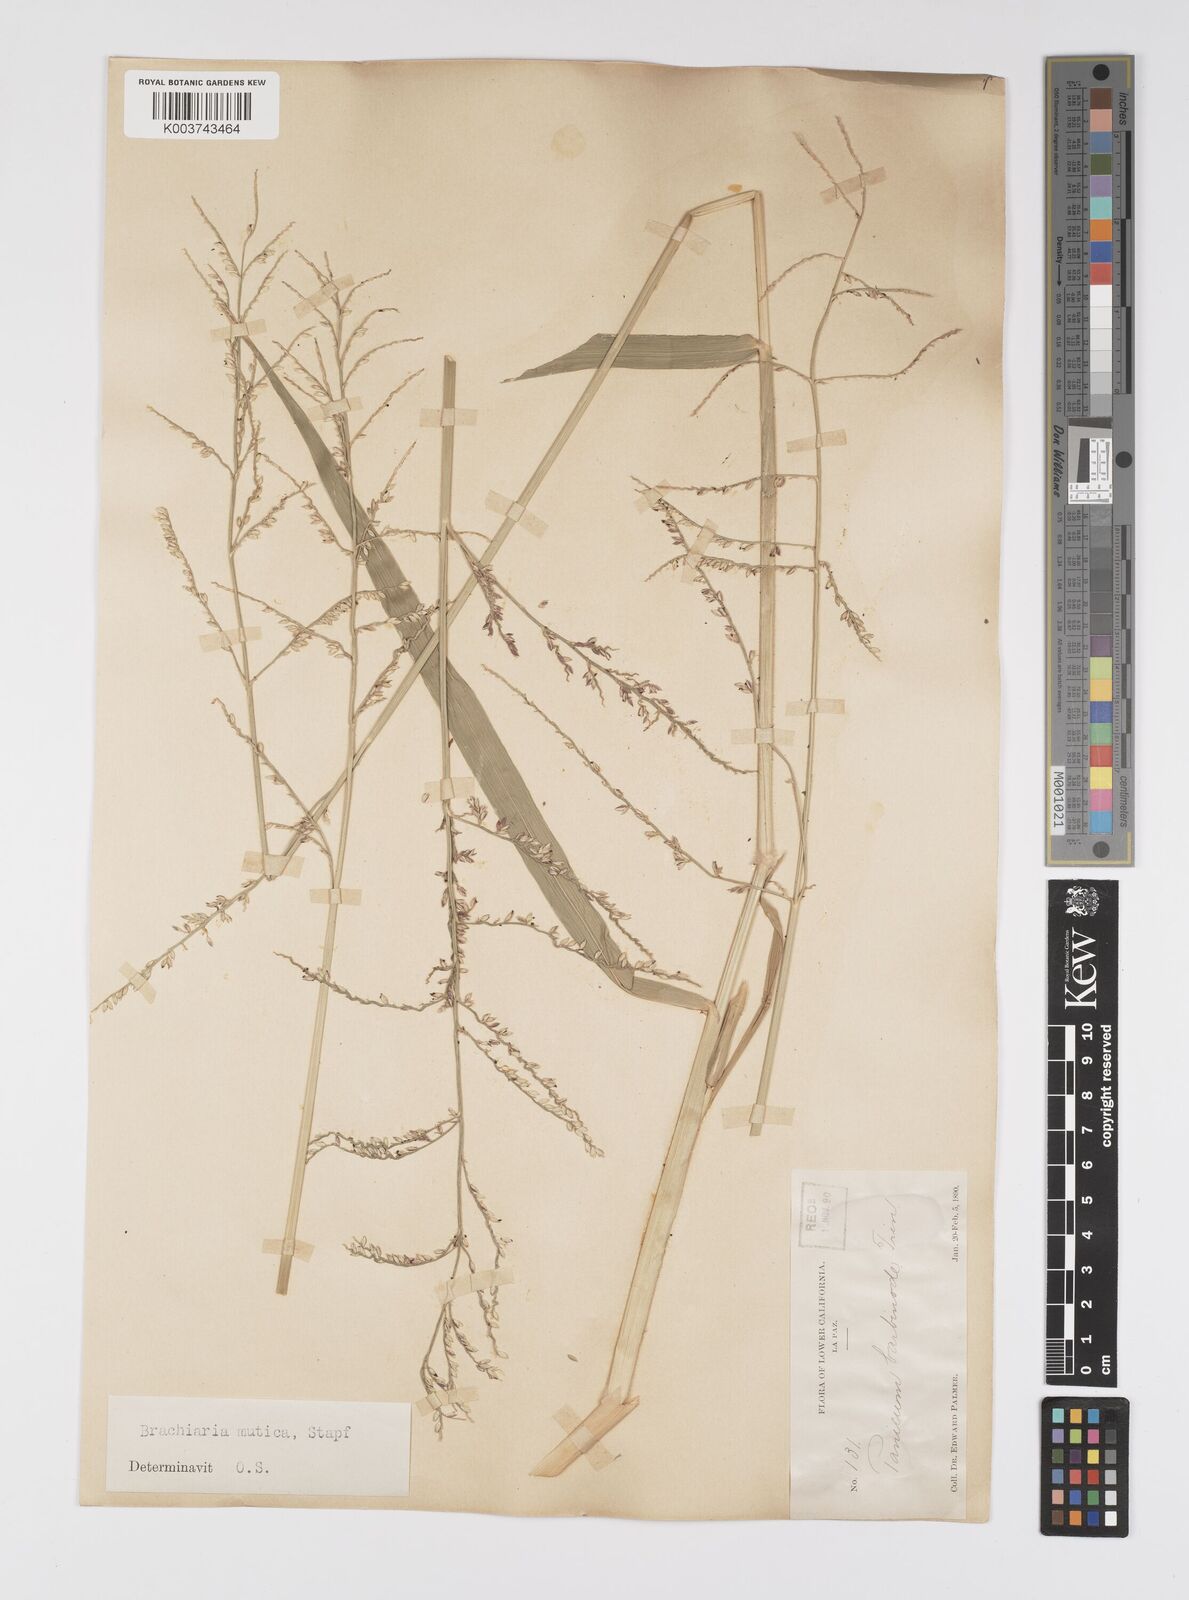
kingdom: Plantae
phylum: Tracheophyta
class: Liliopsida
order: Poales
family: Poaceae
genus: Urochloa
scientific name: Urochloa mutica
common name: Para grass
